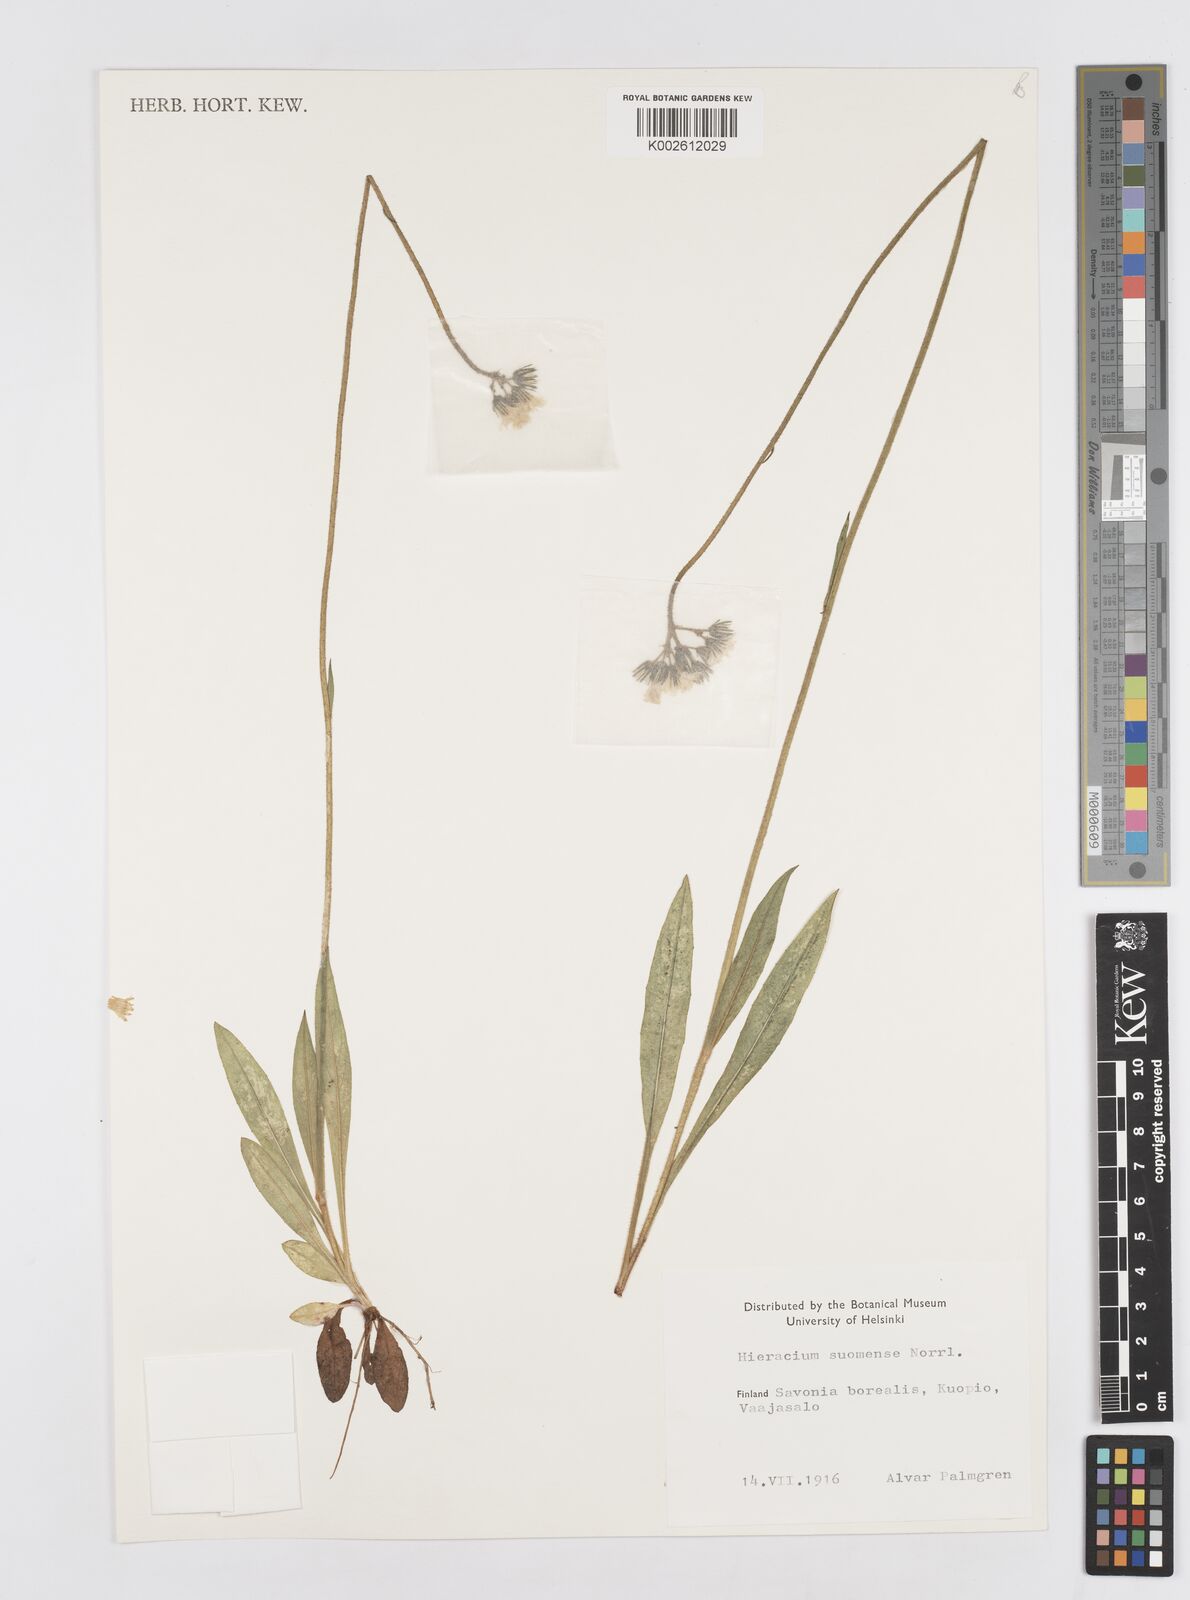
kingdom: Plantae
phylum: Tracheophyta
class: Magnoliopsida
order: Asterales
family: Asteraceae
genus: Pilosella
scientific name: Pilosella cymosa
